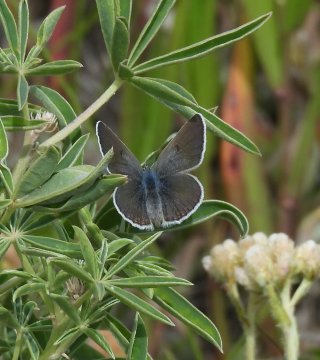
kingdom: Animalia
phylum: Arthropoda
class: Insecta
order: Lepidoptera
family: Lycaenidae
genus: Icaricia
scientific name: Icaricia icarioides
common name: Boisduval's Blue
